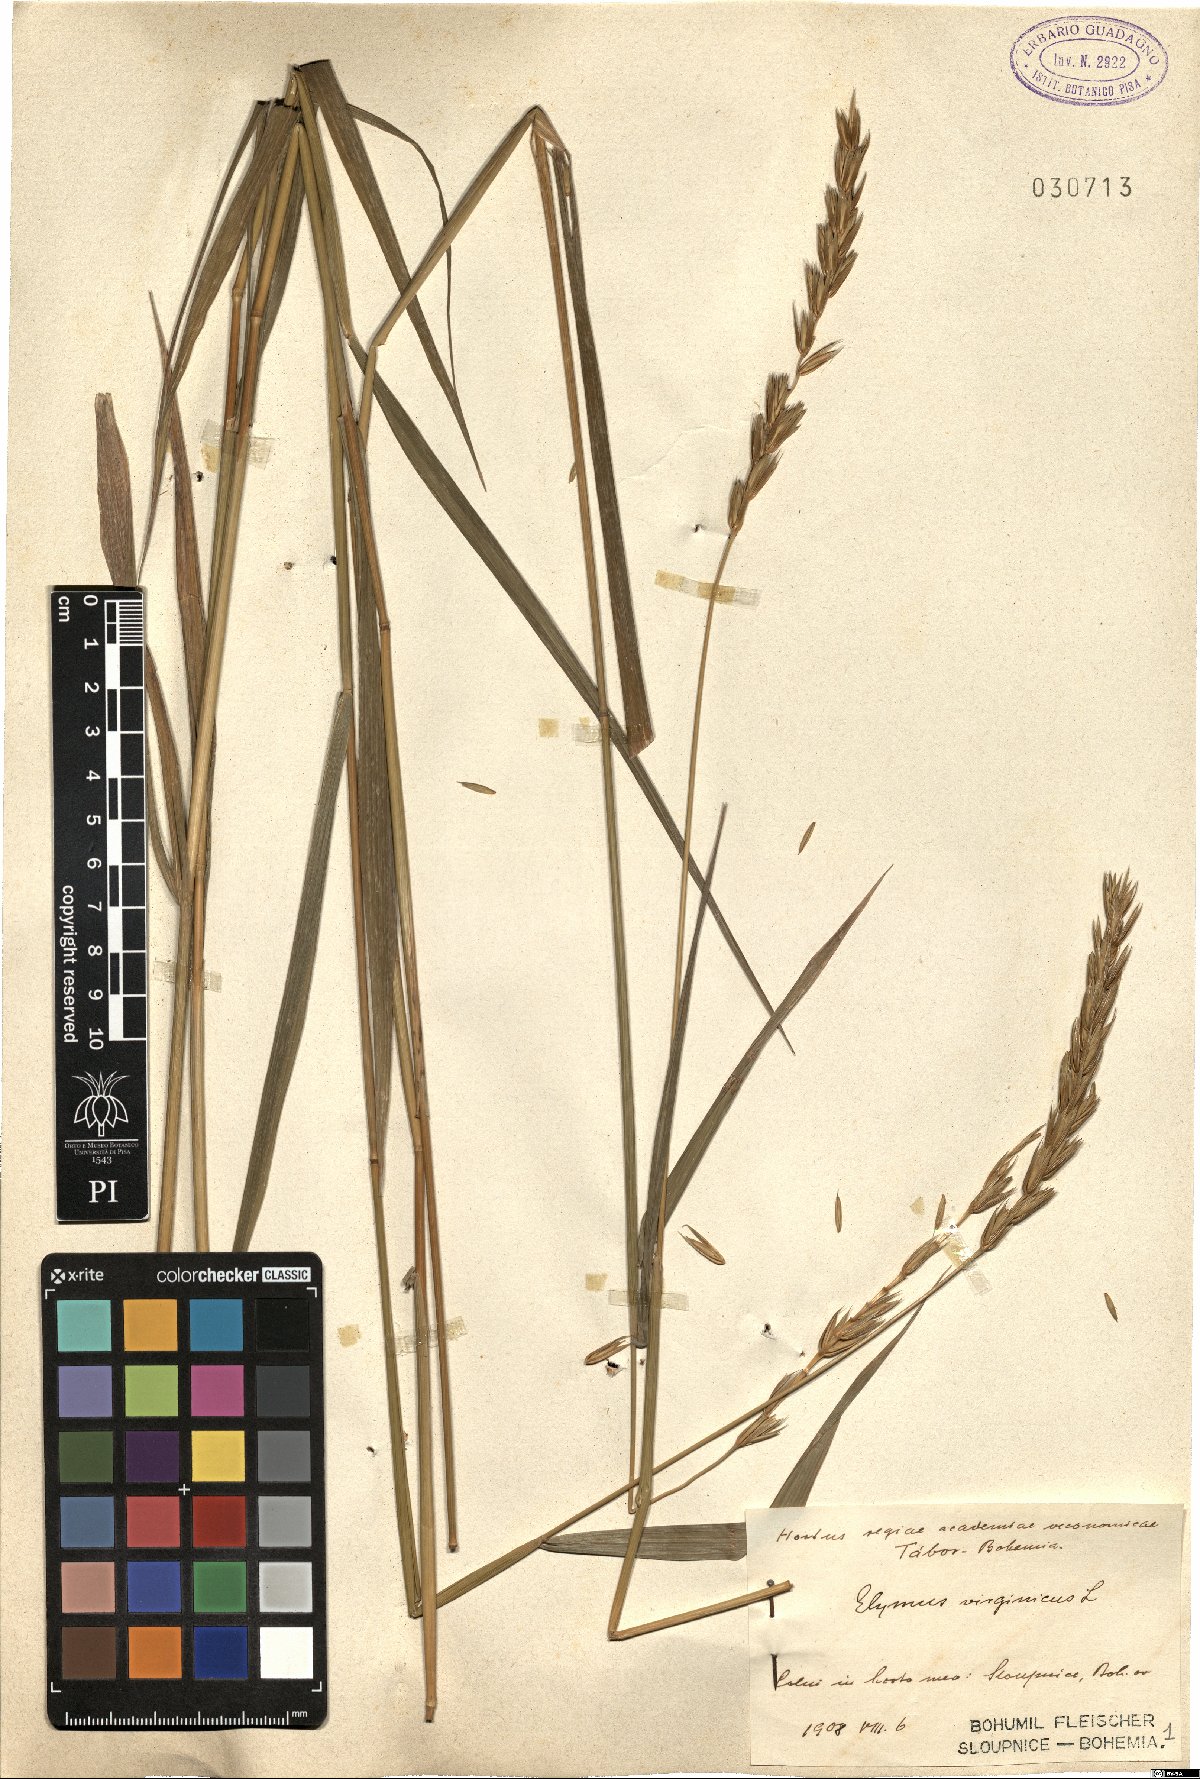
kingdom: Plantae
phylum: Tracheophyta
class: Liliopsida
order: Poales
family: Poaceae
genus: Elymus
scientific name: Elymus virginicus
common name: Common eastern wildrye
